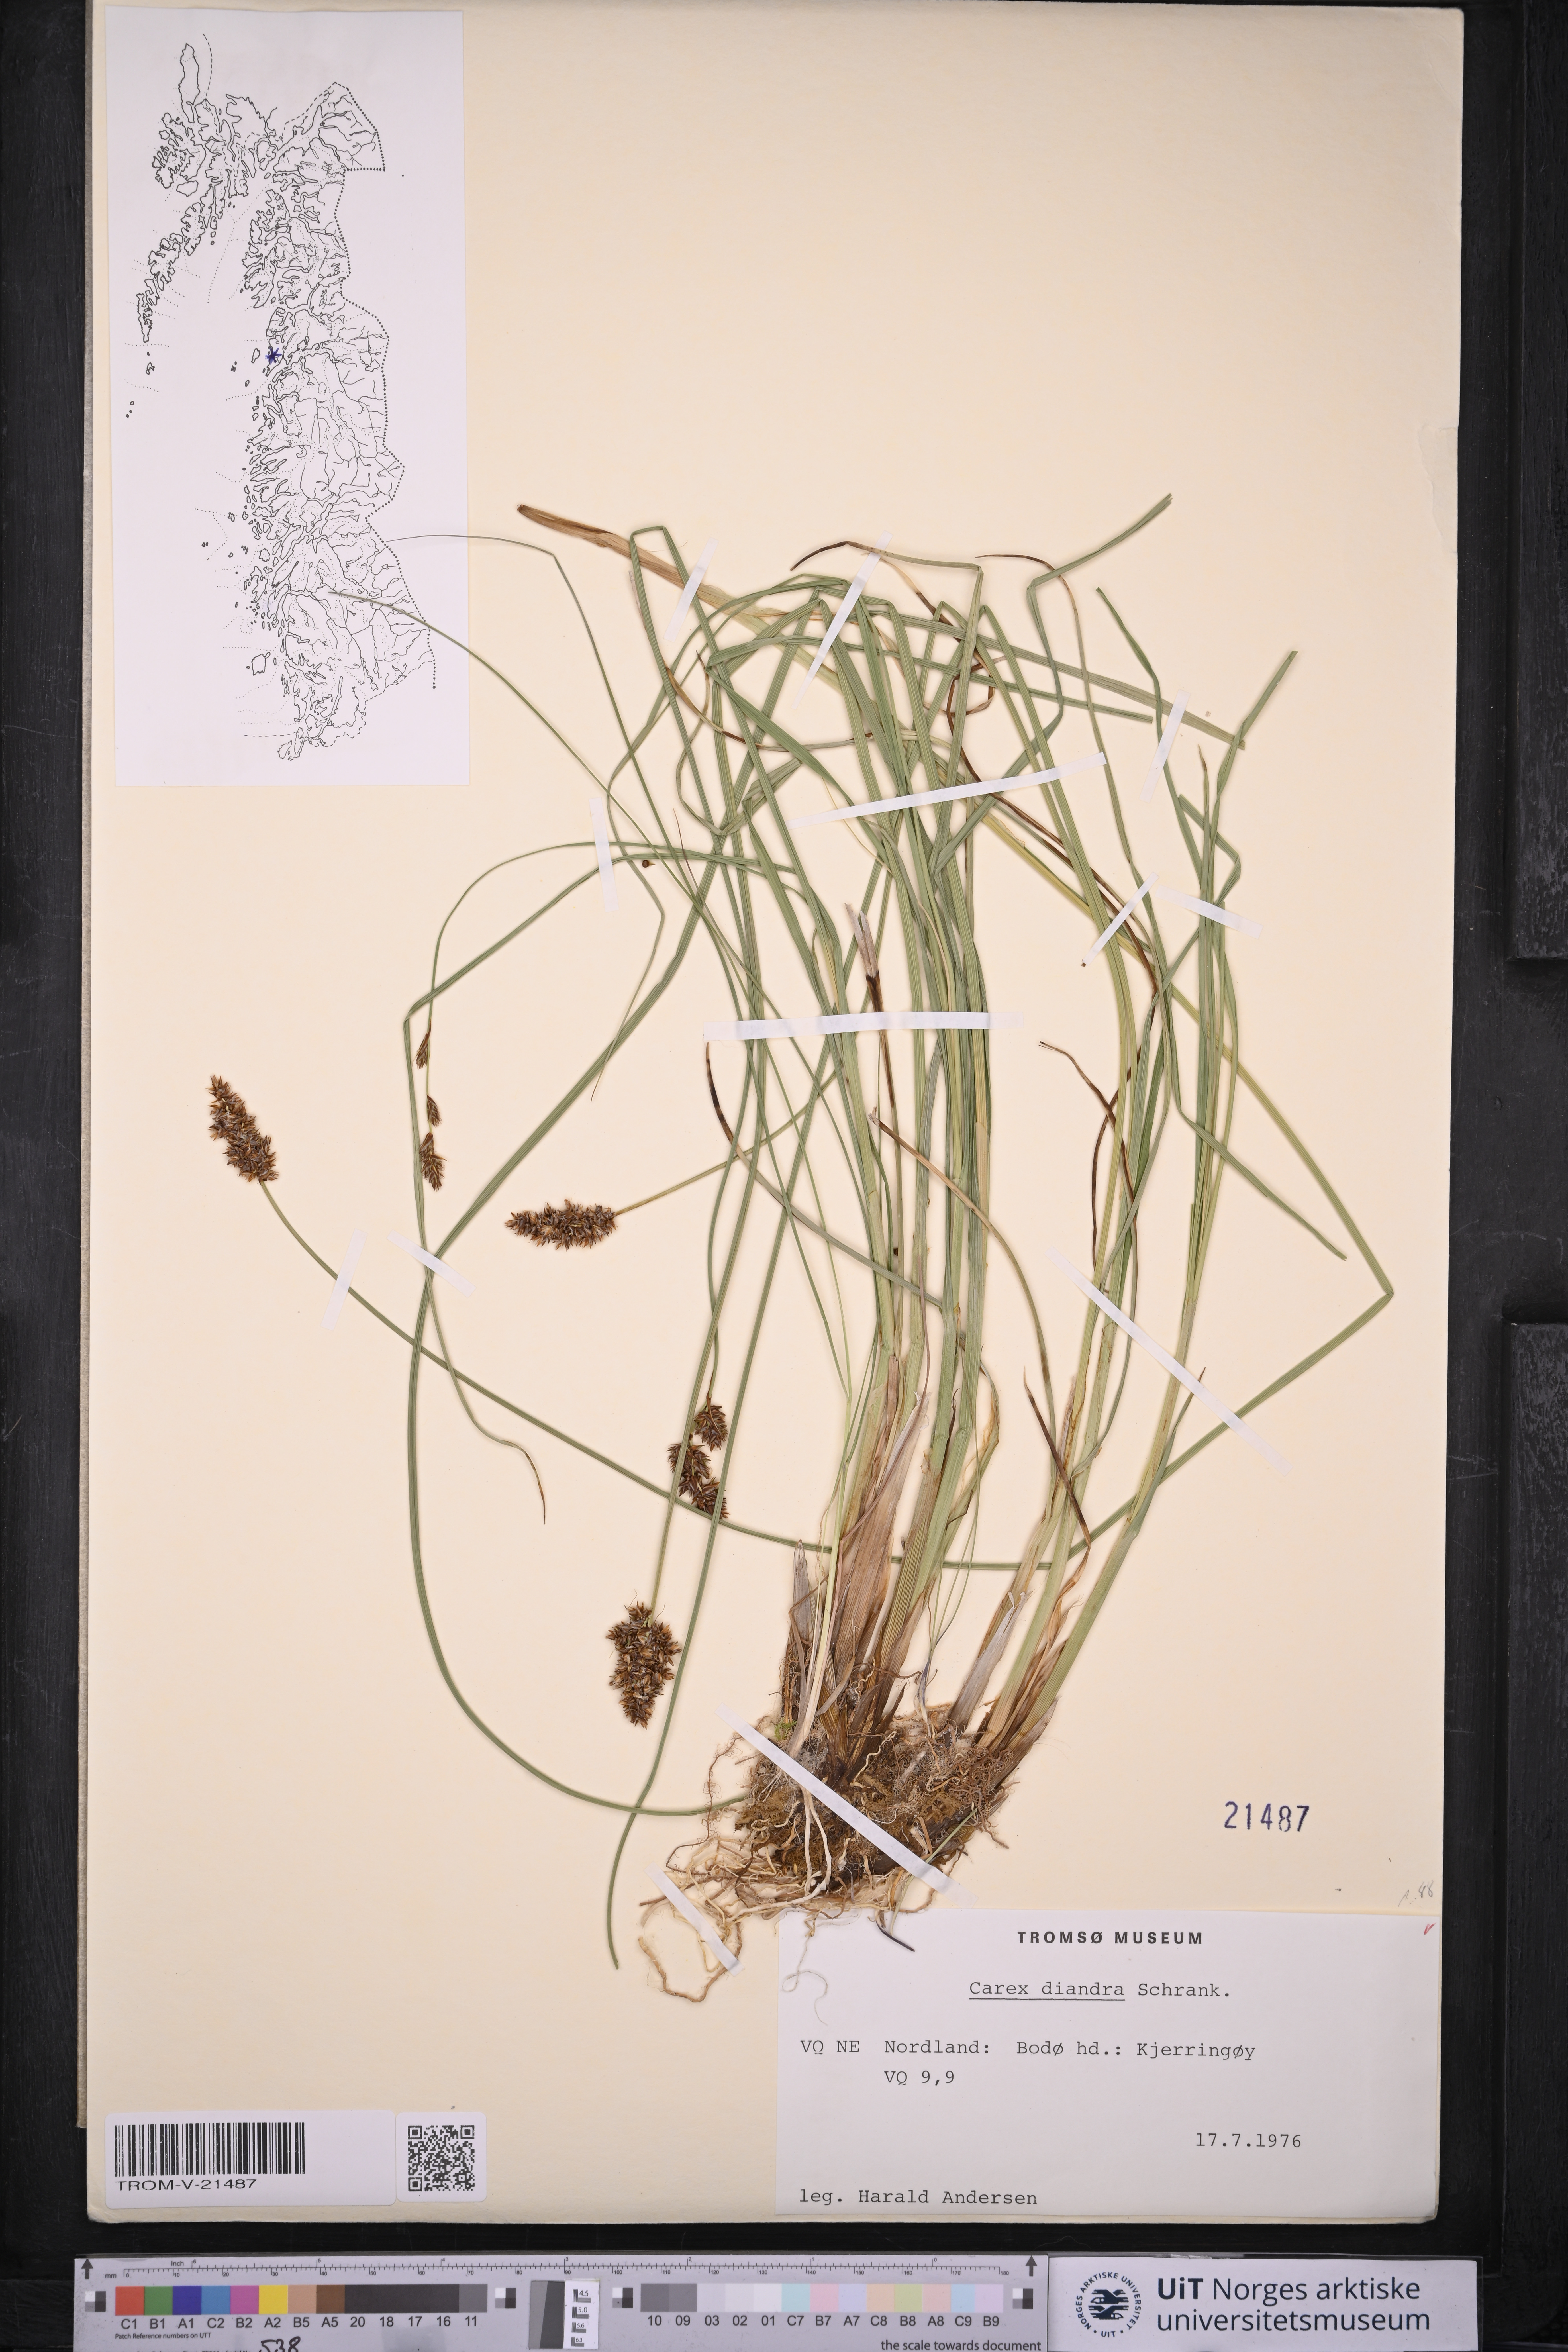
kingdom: Plantae
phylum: Tracheophyta
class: Liliopsida
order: Poales
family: Cyperaceae
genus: Carex
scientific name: Carex diandra
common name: Lesser tussock-sedge
